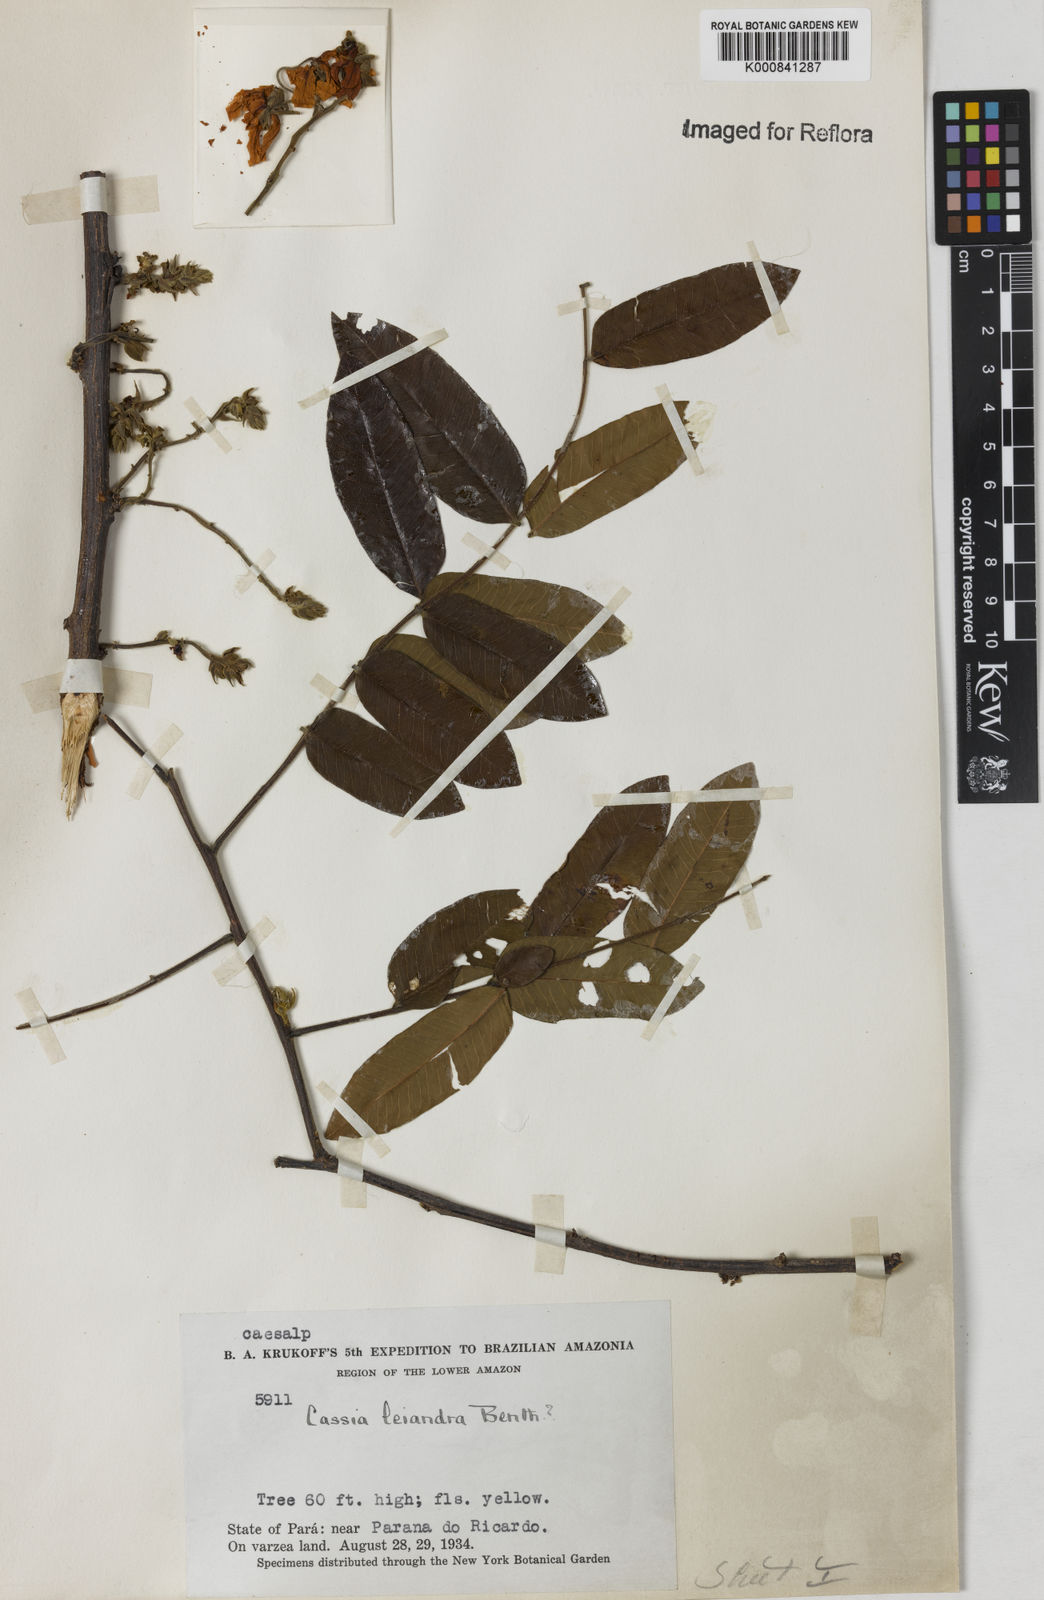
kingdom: Plantae
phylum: Tracheophyta
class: Magnoliopsida
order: Fabales
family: Fabaceae
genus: Cassia
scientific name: Cassia leiandra
